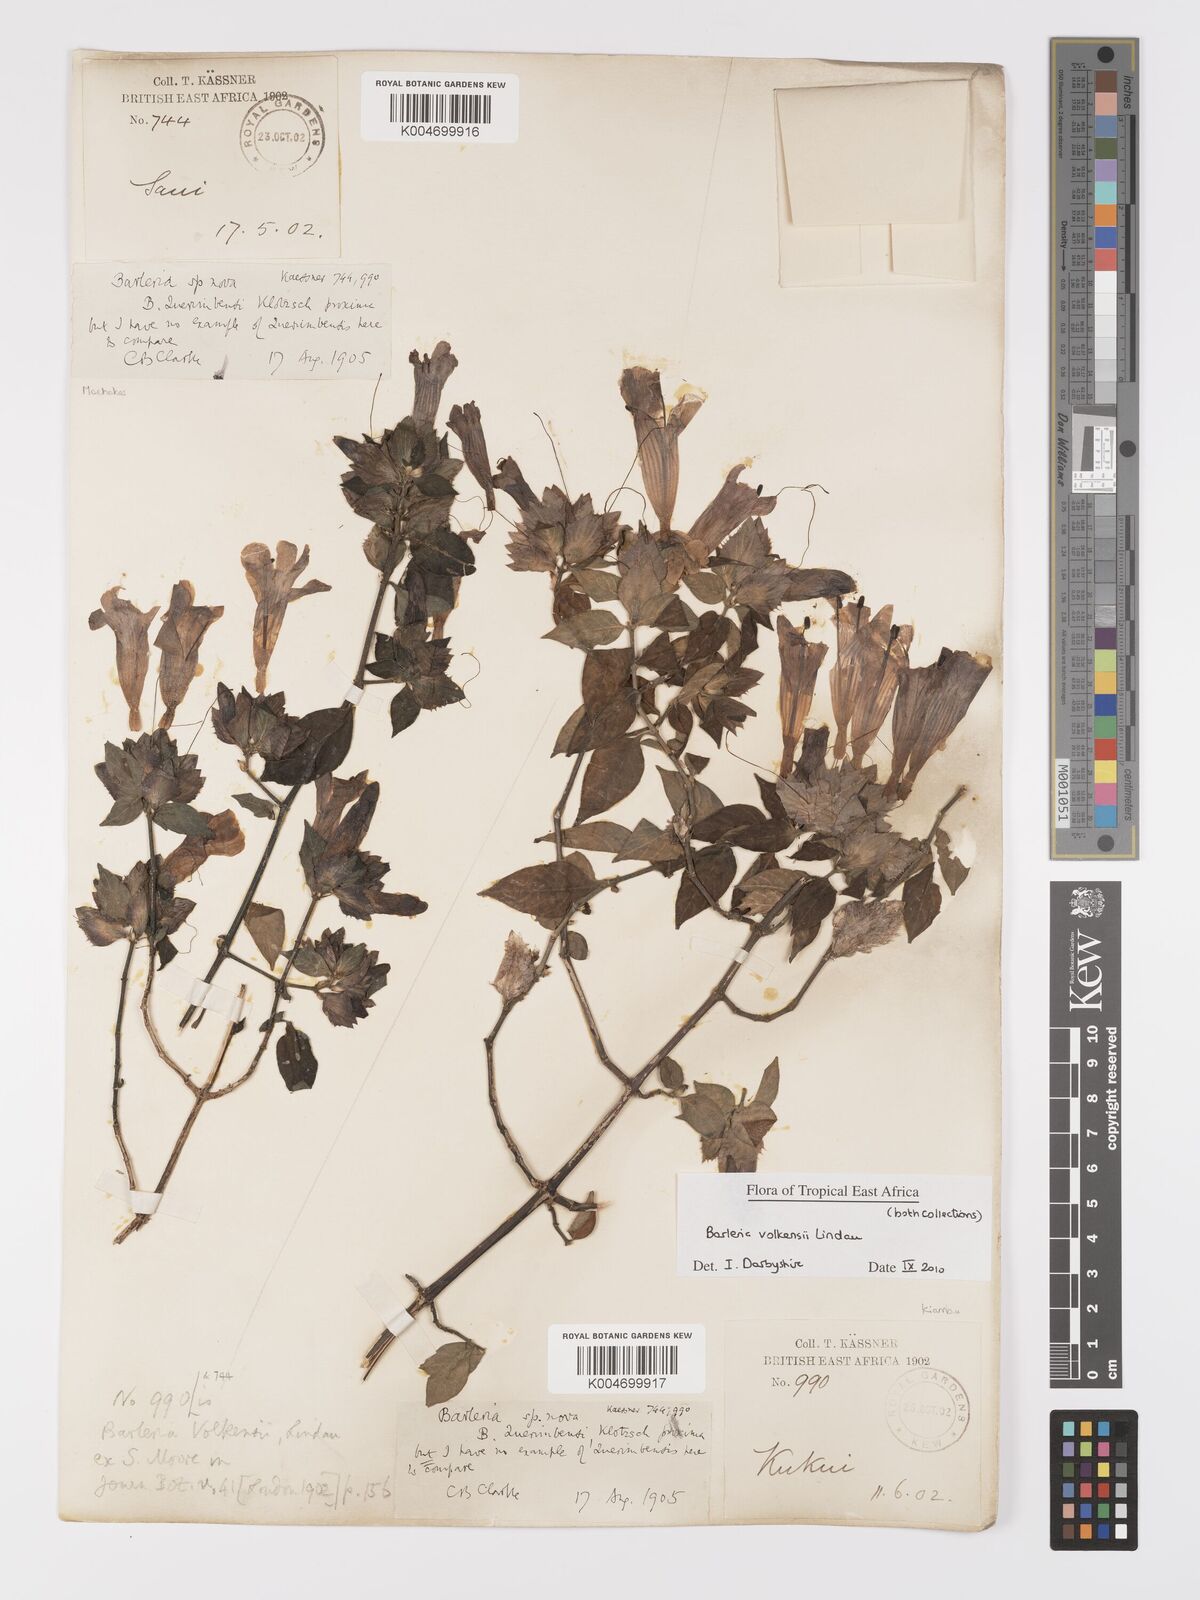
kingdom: Plantae
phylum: Tracheophyta
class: Magnoliopsida
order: Lamiales
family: Acanthaceae
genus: Barleria
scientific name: Barleria volkensii
